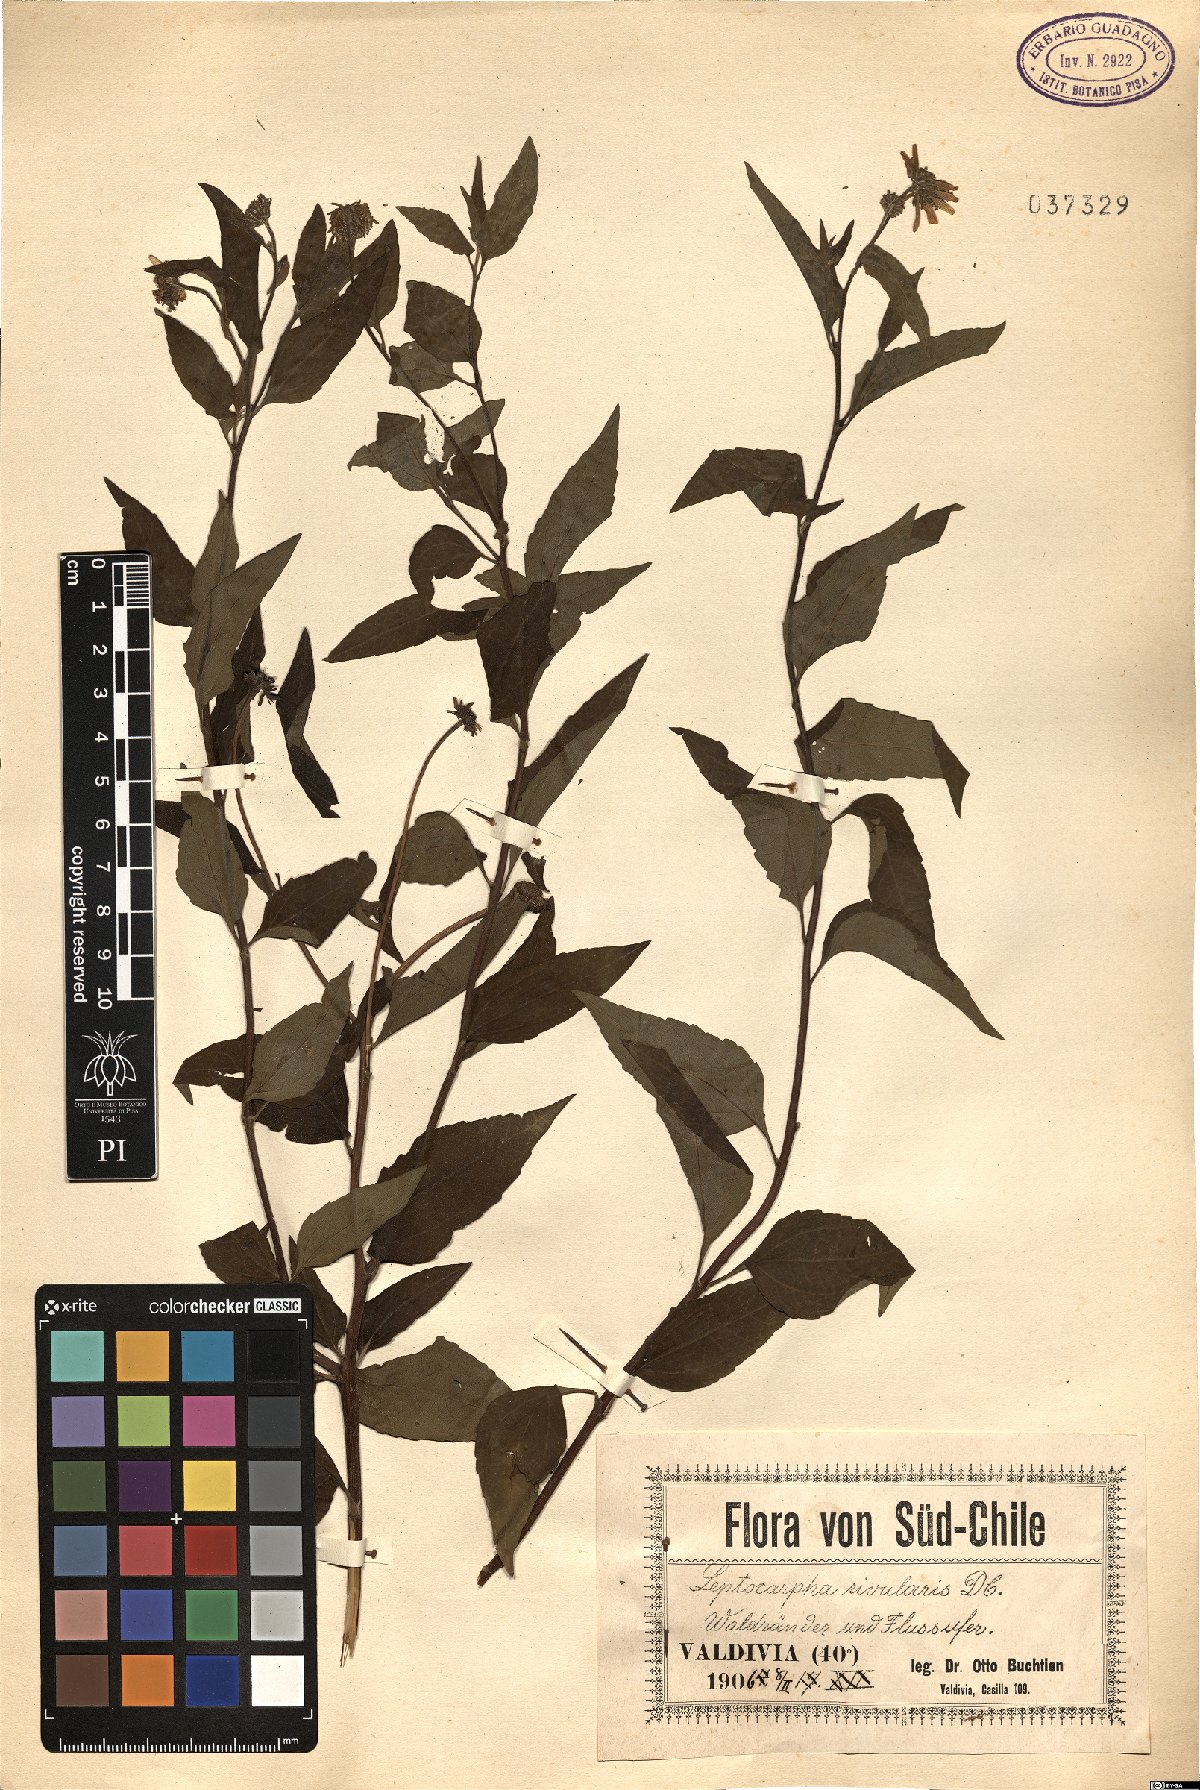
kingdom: Plantae
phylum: Tracheophyta
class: Magnoliopsida
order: Asterales
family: Asteraceae
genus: Leptocarpha
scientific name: Leptocarpha rivularis
